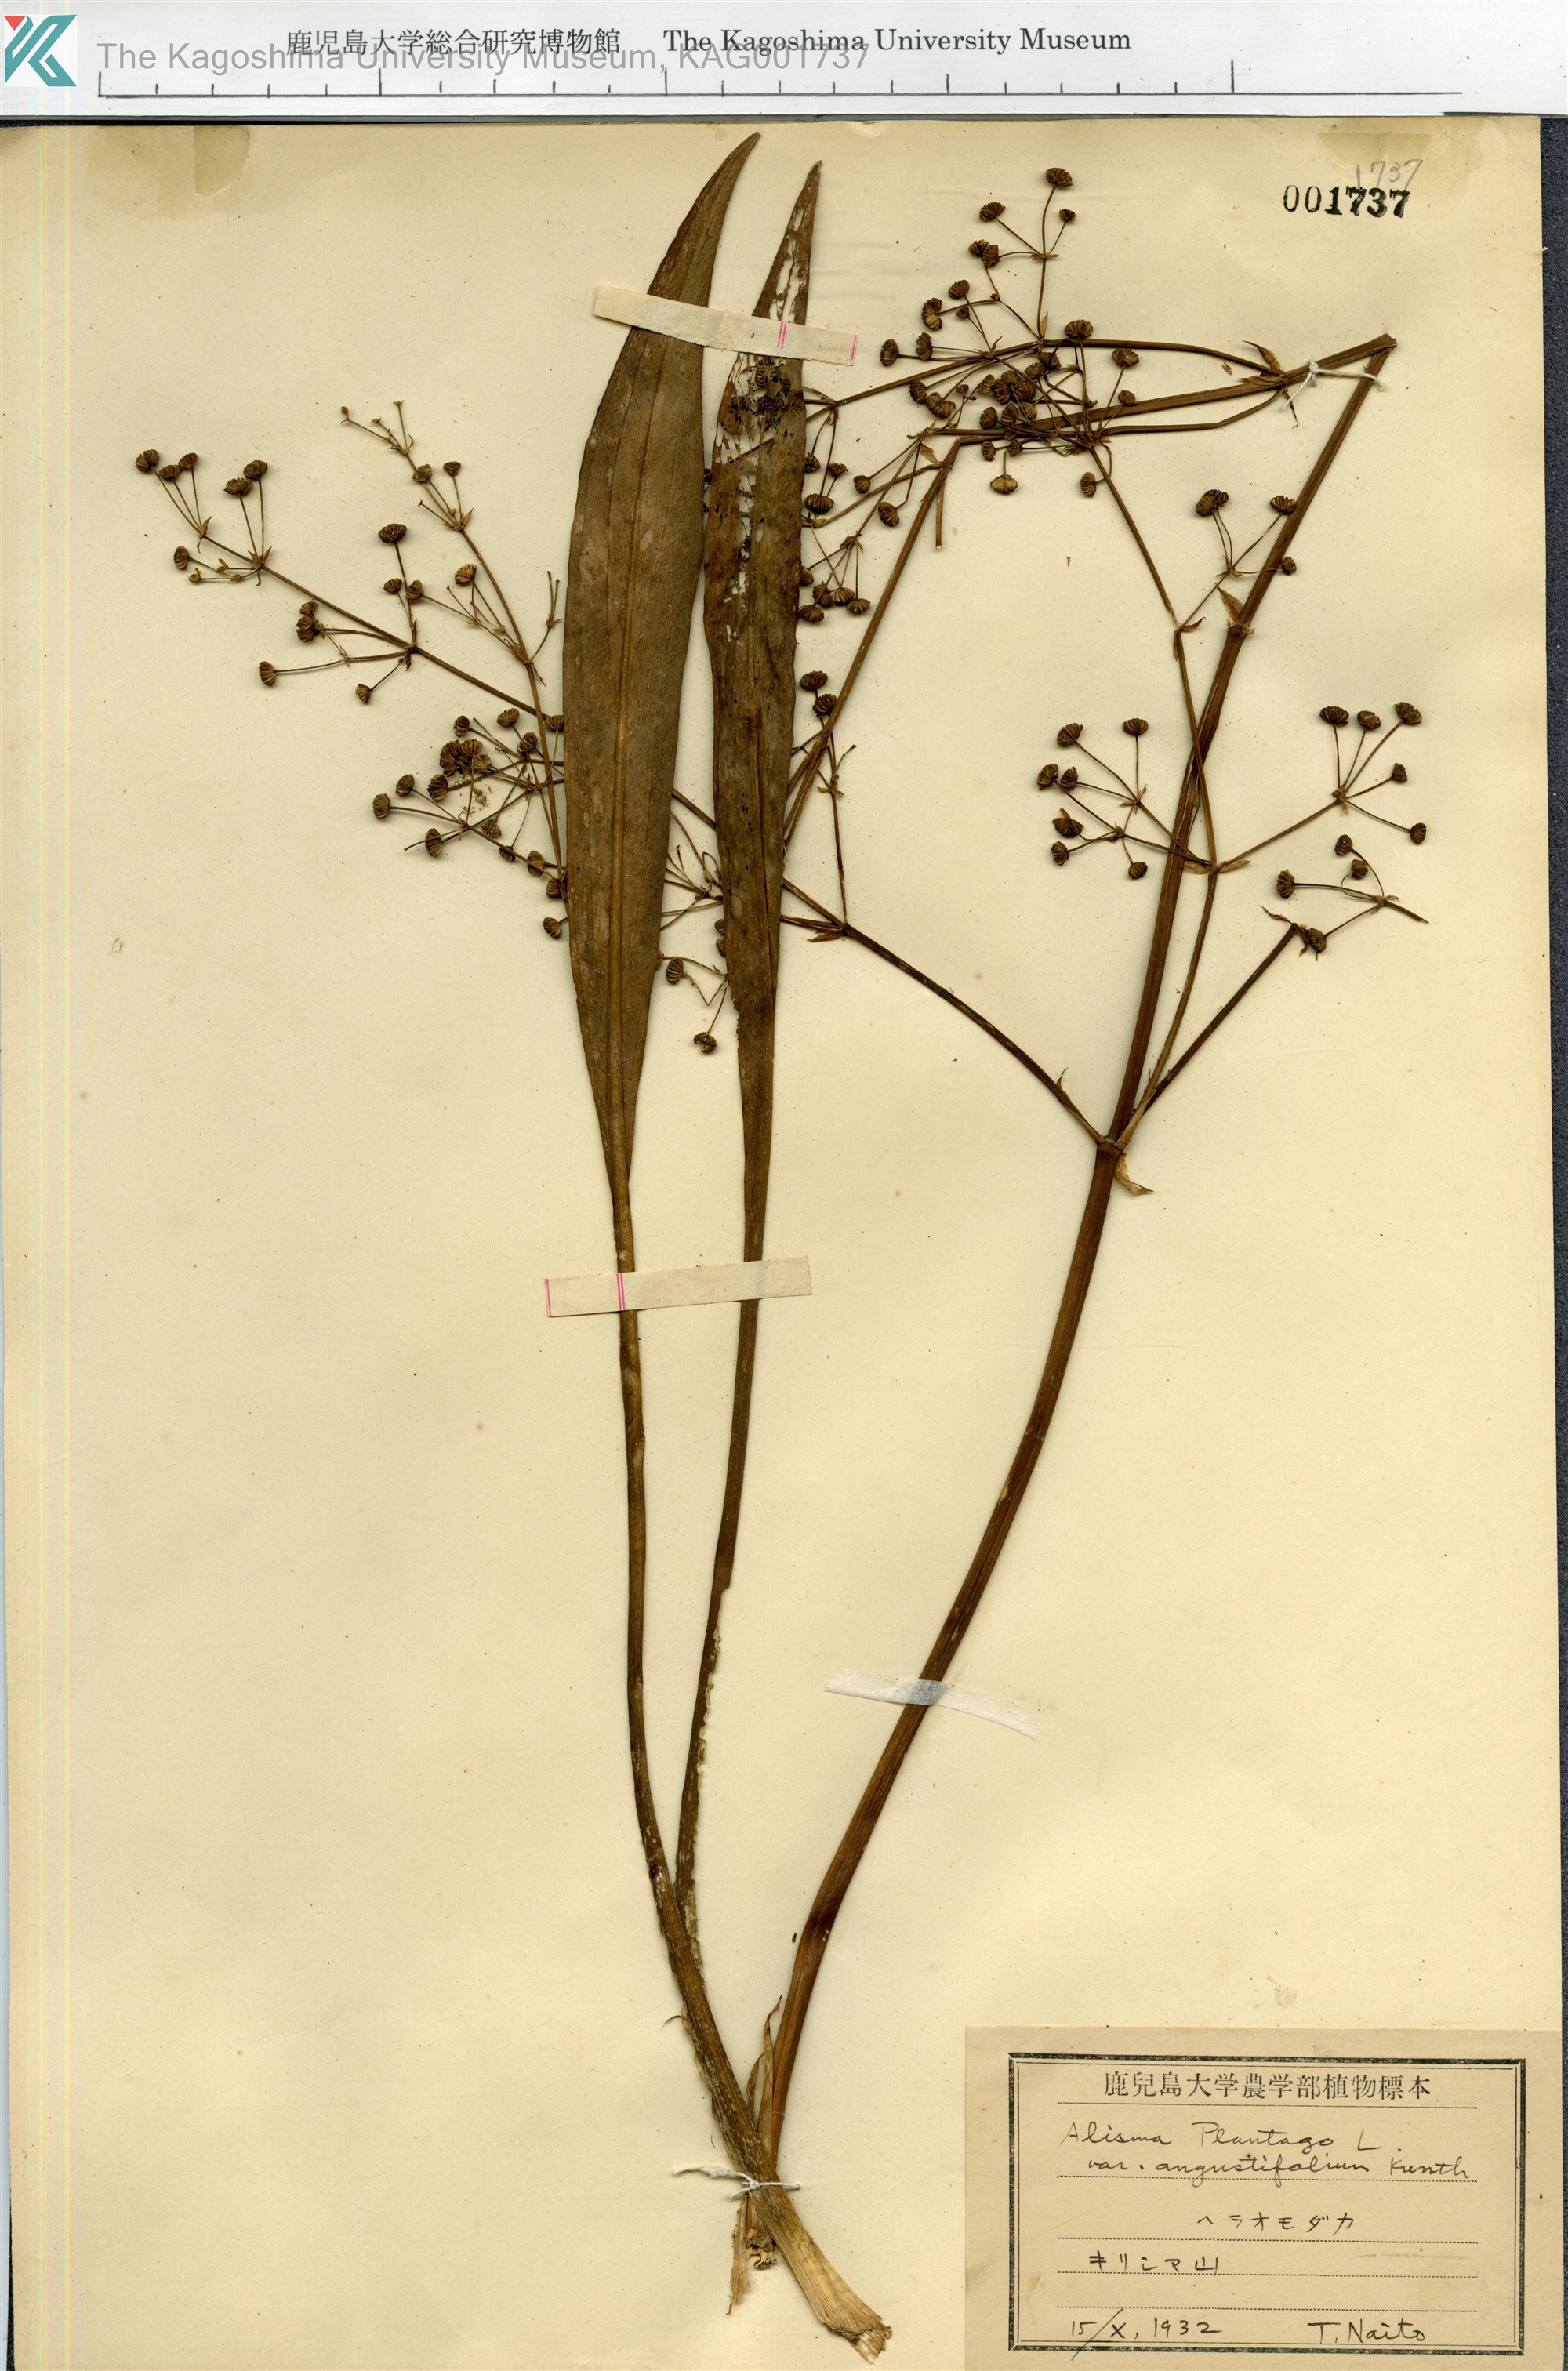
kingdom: Plantae
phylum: Tracheophyta
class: Liliopsida
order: Alismatales
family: Alismataceae
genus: Alisma
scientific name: Alisma canaliculatum
